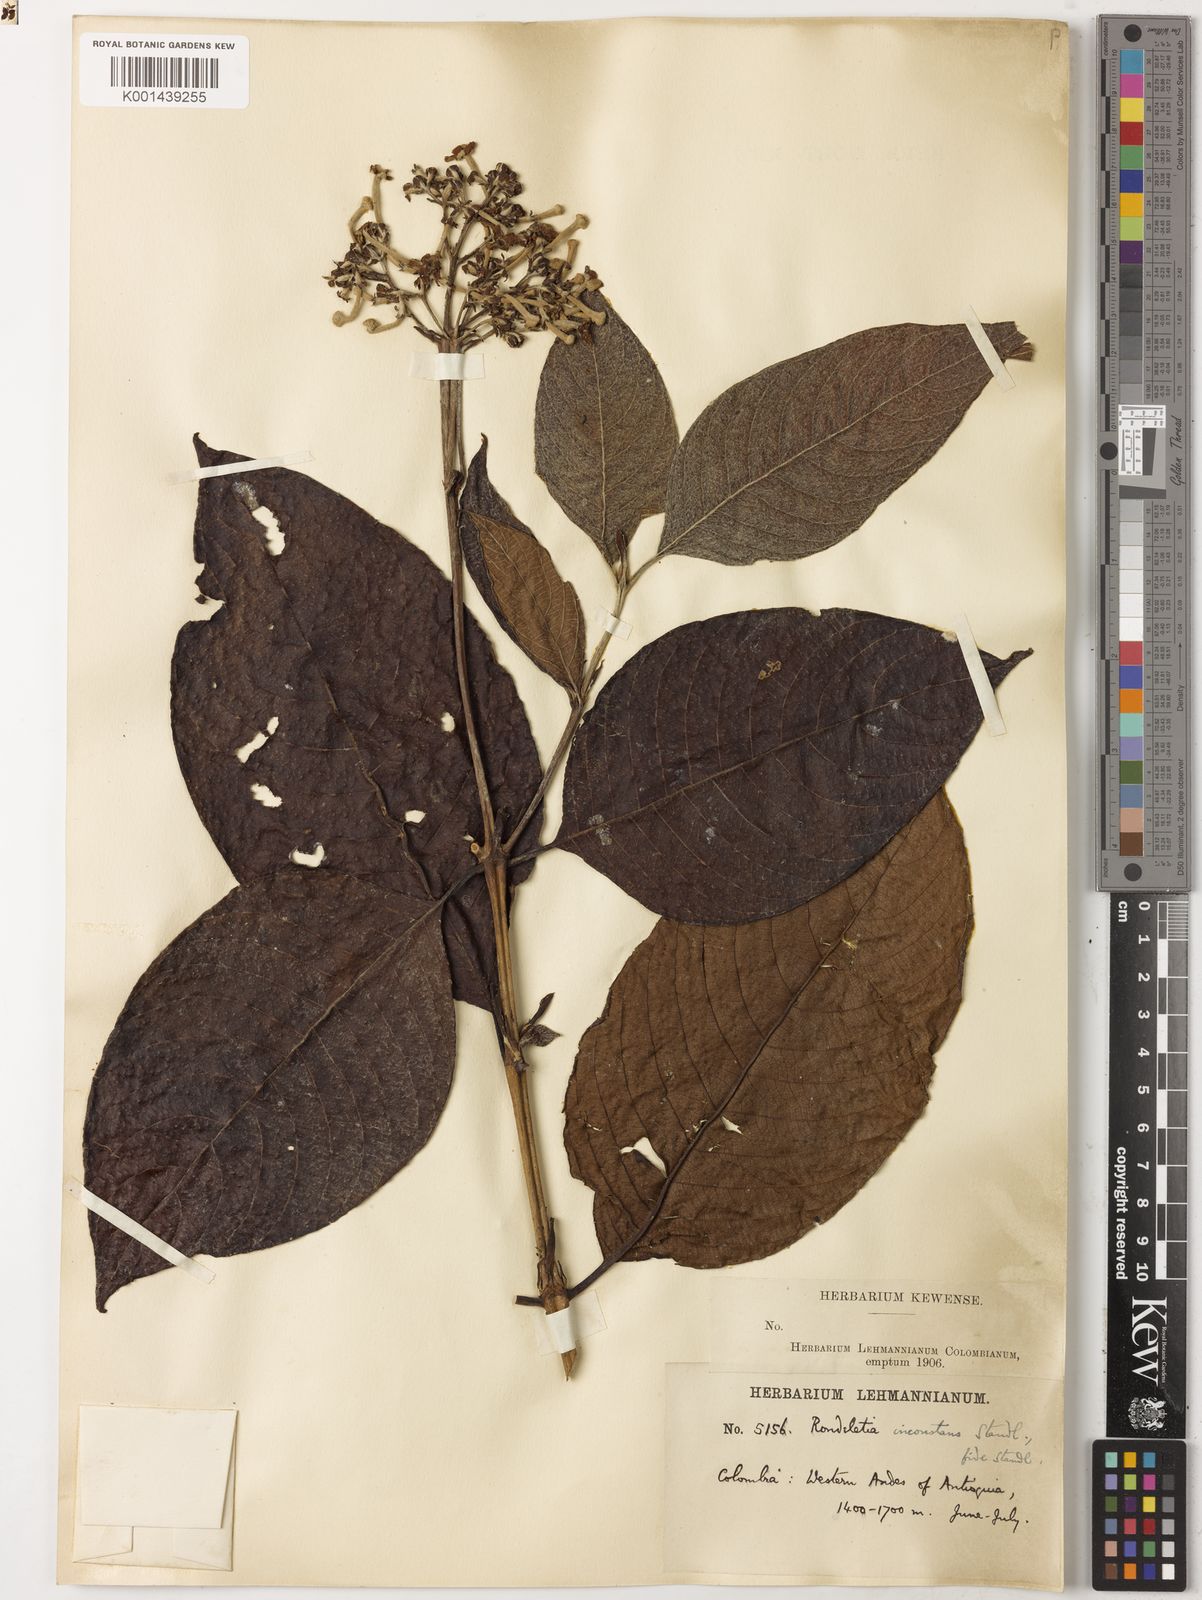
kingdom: Plantae
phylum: Tracheophyta
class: Magnoliopsida
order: Gentianales
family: Rubiaceae
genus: Arachnothryx
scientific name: Arachnothryx reflexa
